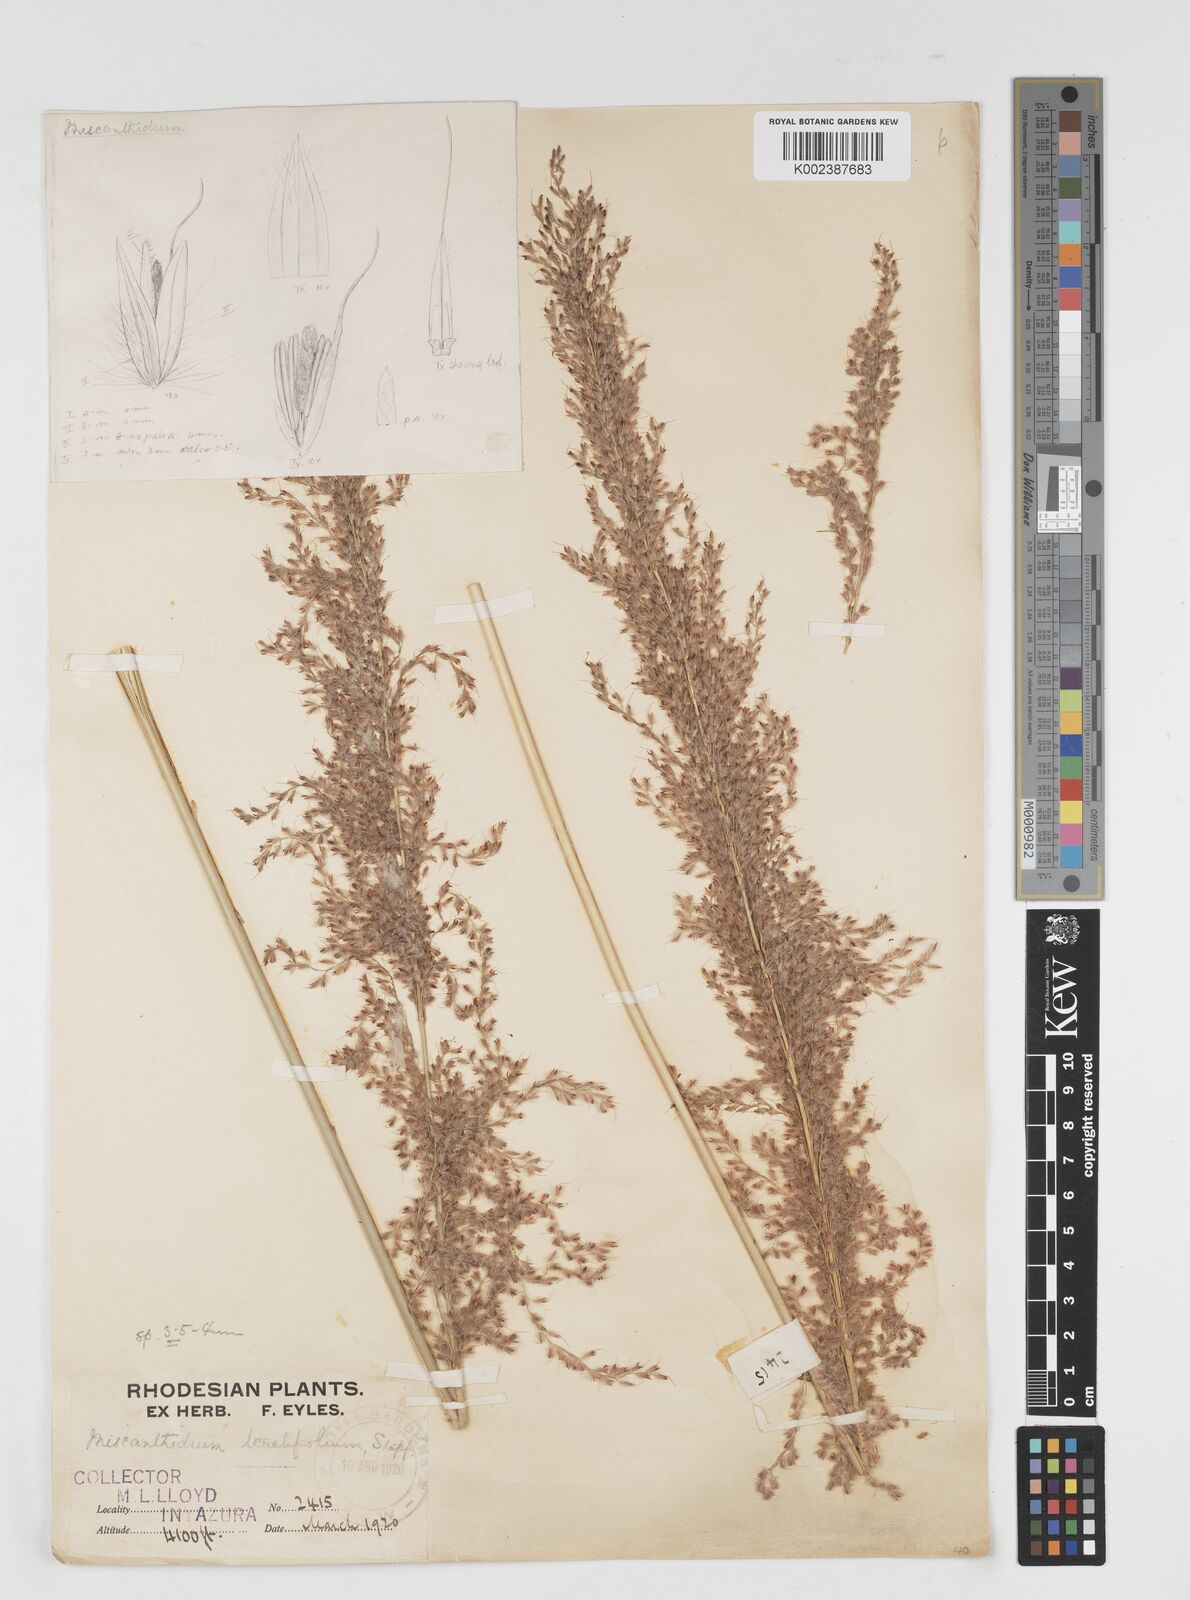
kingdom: Plantae
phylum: Tracheophyta
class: Liliopsida
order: Poales
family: Poaceae
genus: Miscanthus
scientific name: Miscanthus ecklonii
